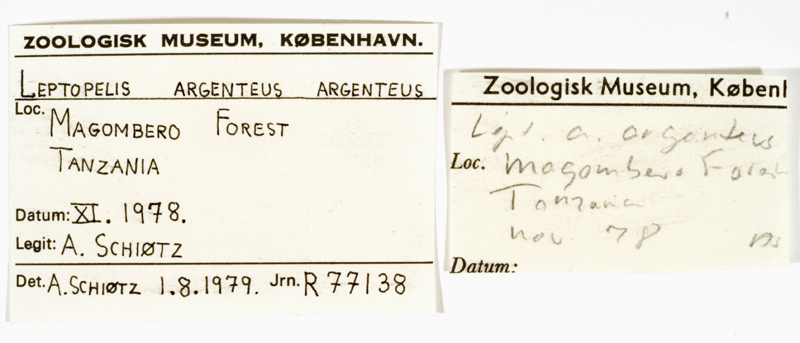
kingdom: Animalia
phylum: Chordata
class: Amphibia
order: Anura
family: Arthroleptidae
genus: Leptopelis
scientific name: Leptopelis argenteus
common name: Broadley's tree frog
